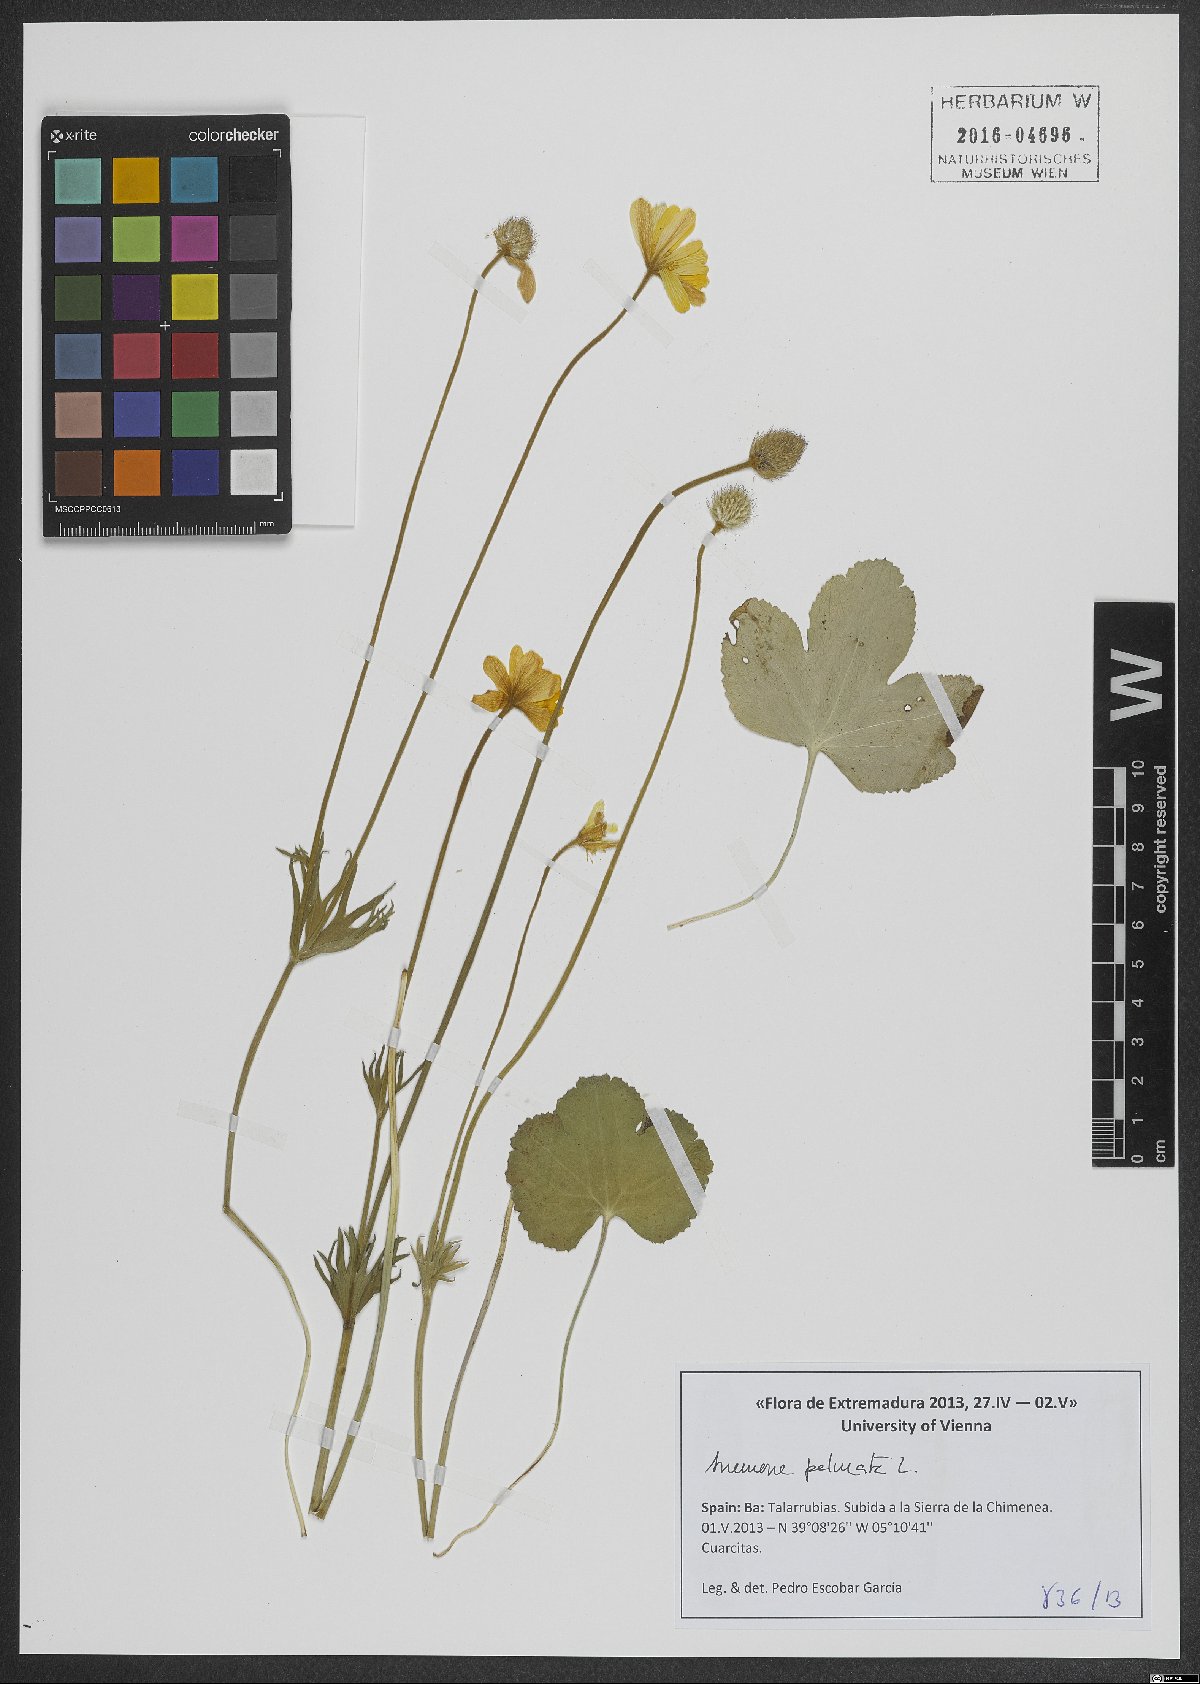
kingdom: Plantae
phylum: Tracheophyta
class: Magnoliopsida
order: Ranunculales
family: Ranunculaceae
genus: Anemone
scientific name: Anemone palmata
